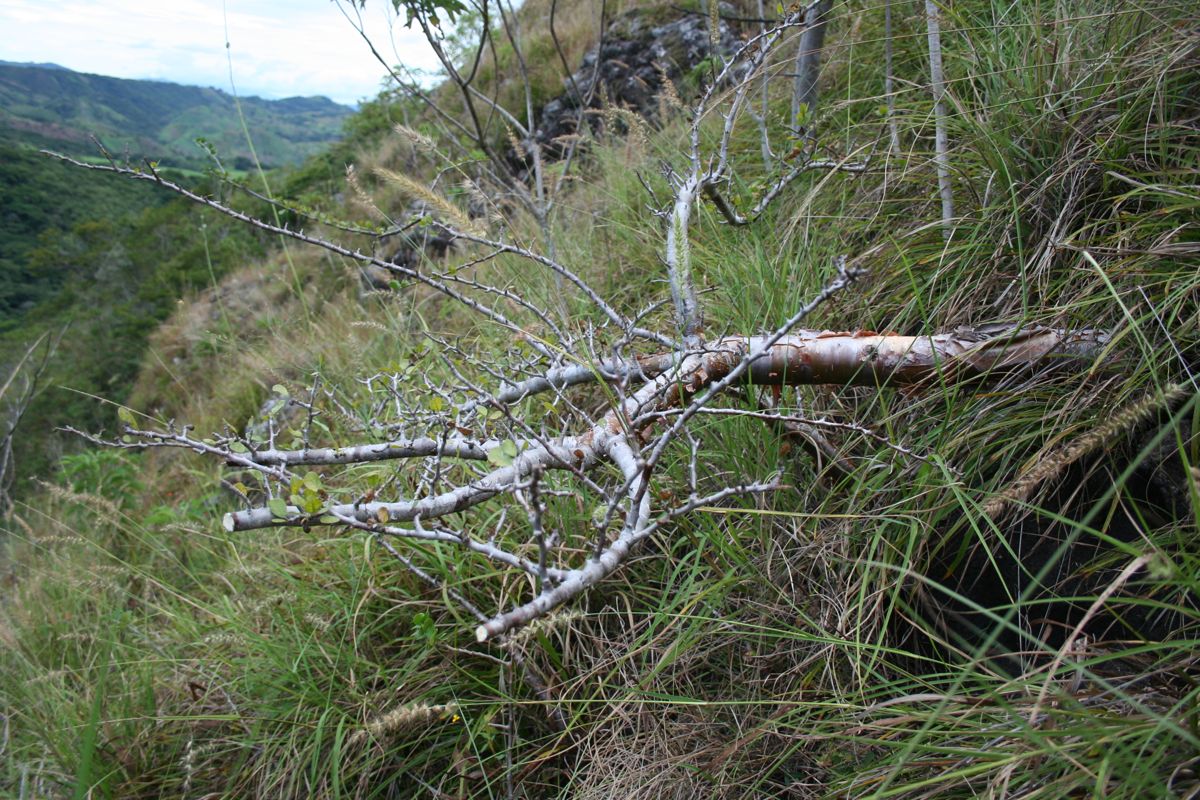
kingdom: Plantae
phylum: Tracheophyta
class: Magnoliopsida
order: Sapindales
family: Burseraceae
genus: Bursera
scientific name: Bursera schlechtendalii
